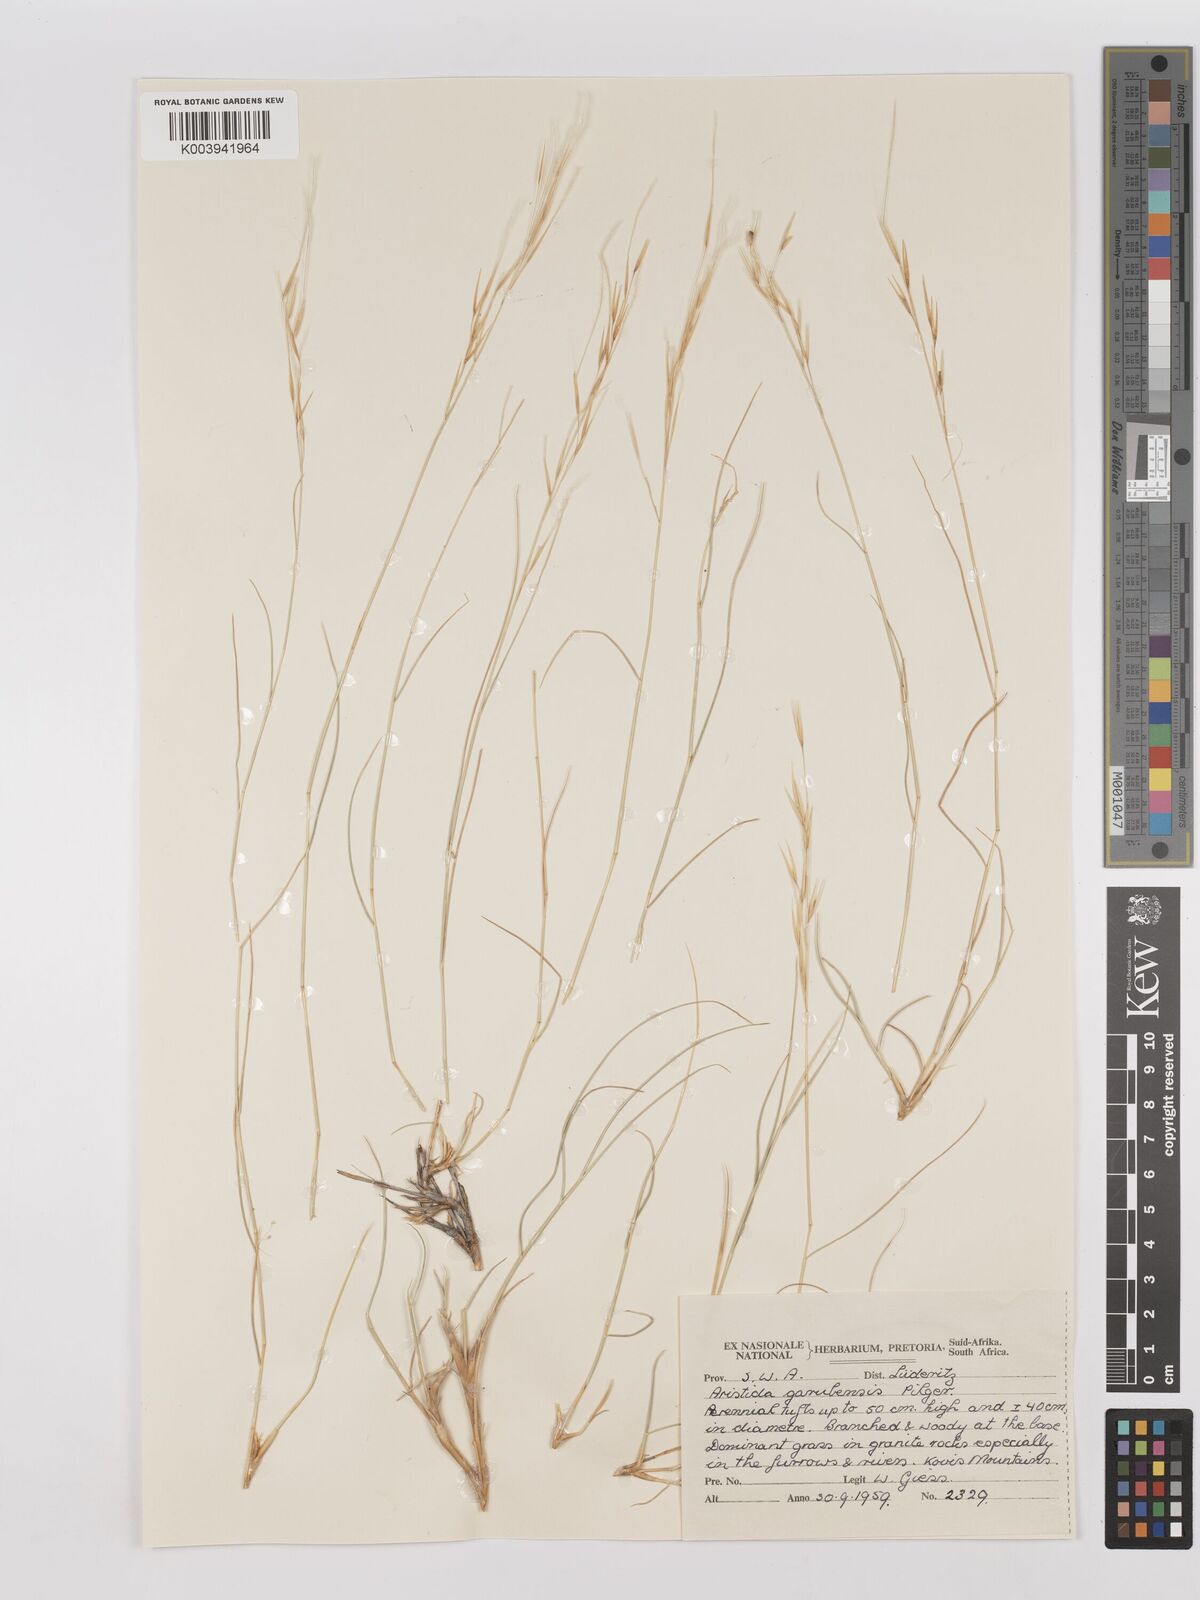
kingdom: Plantae
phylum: Tracheophyta
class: Liliopsida
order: Poales
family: Poaceae
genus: Stipagrostis
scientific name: Stipagrostis garubensis
